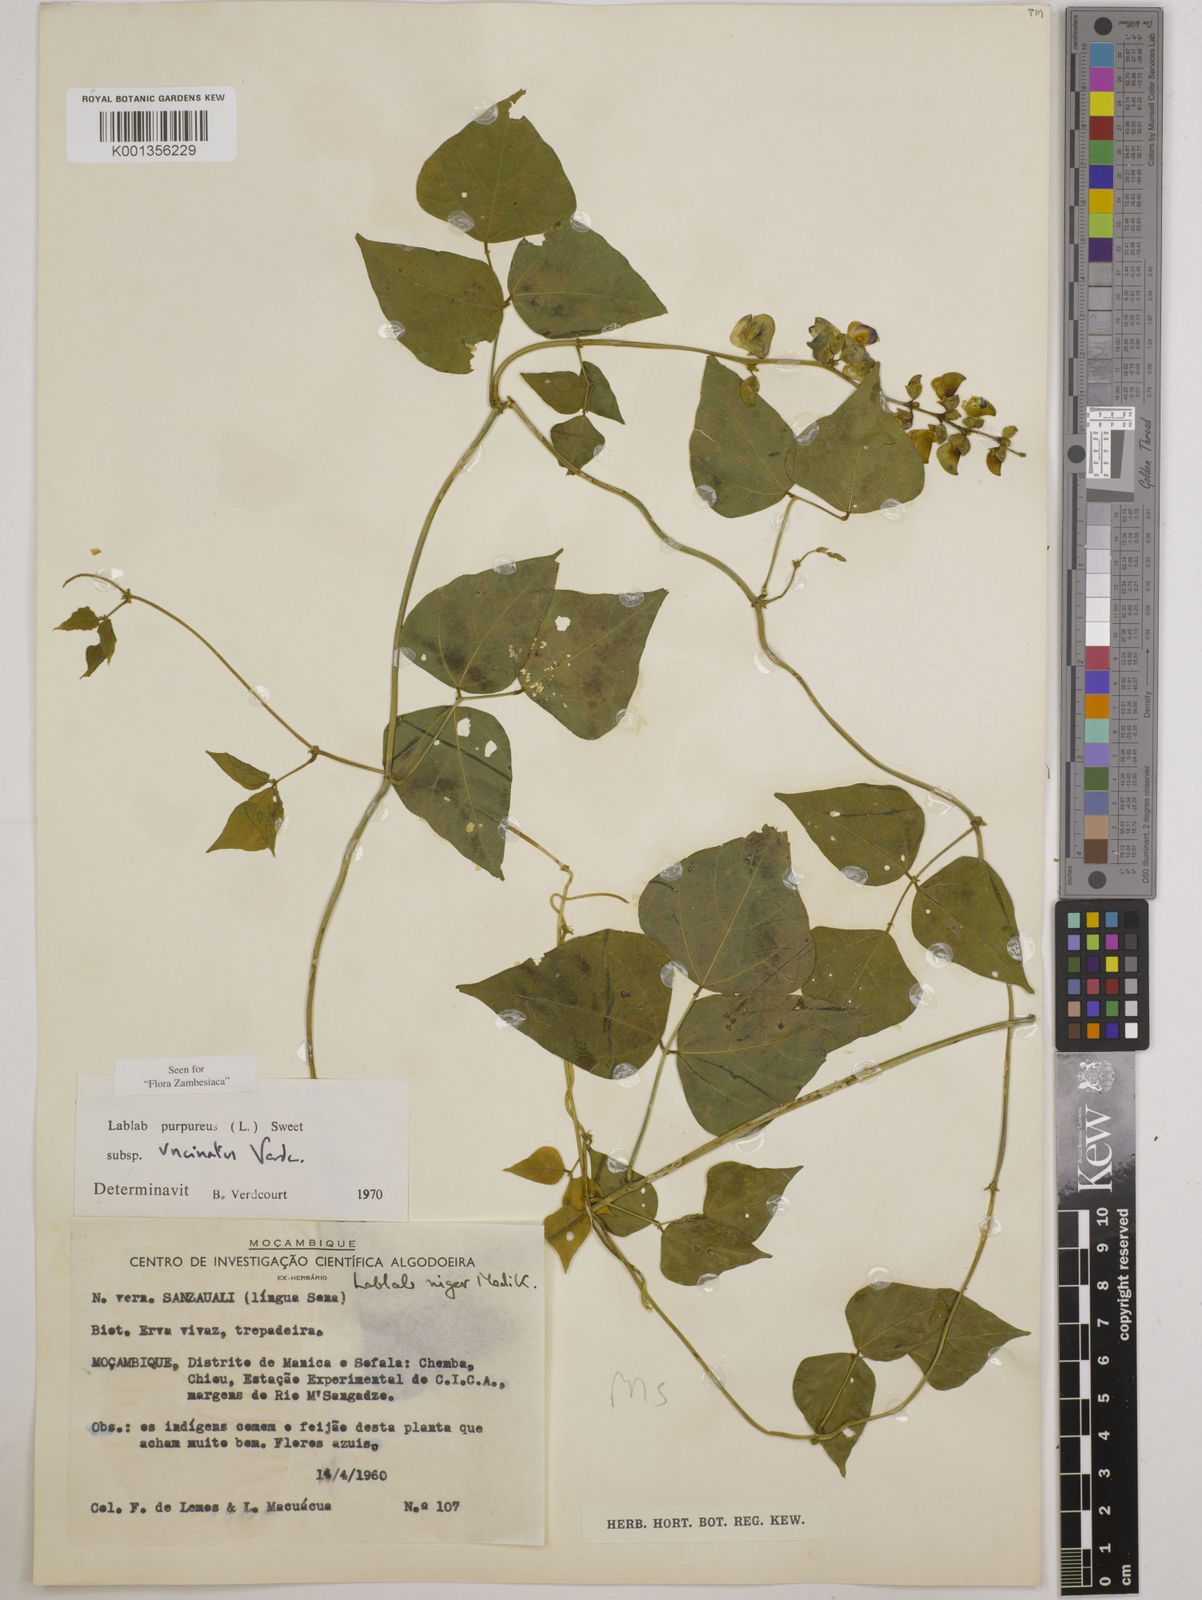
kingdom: Plantae
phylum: Tracheophyta
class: Magnoliopsida
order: Fabales
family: Fabaceae
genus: Lablab
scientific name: Lablab purpureus
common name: Lablab-bean
